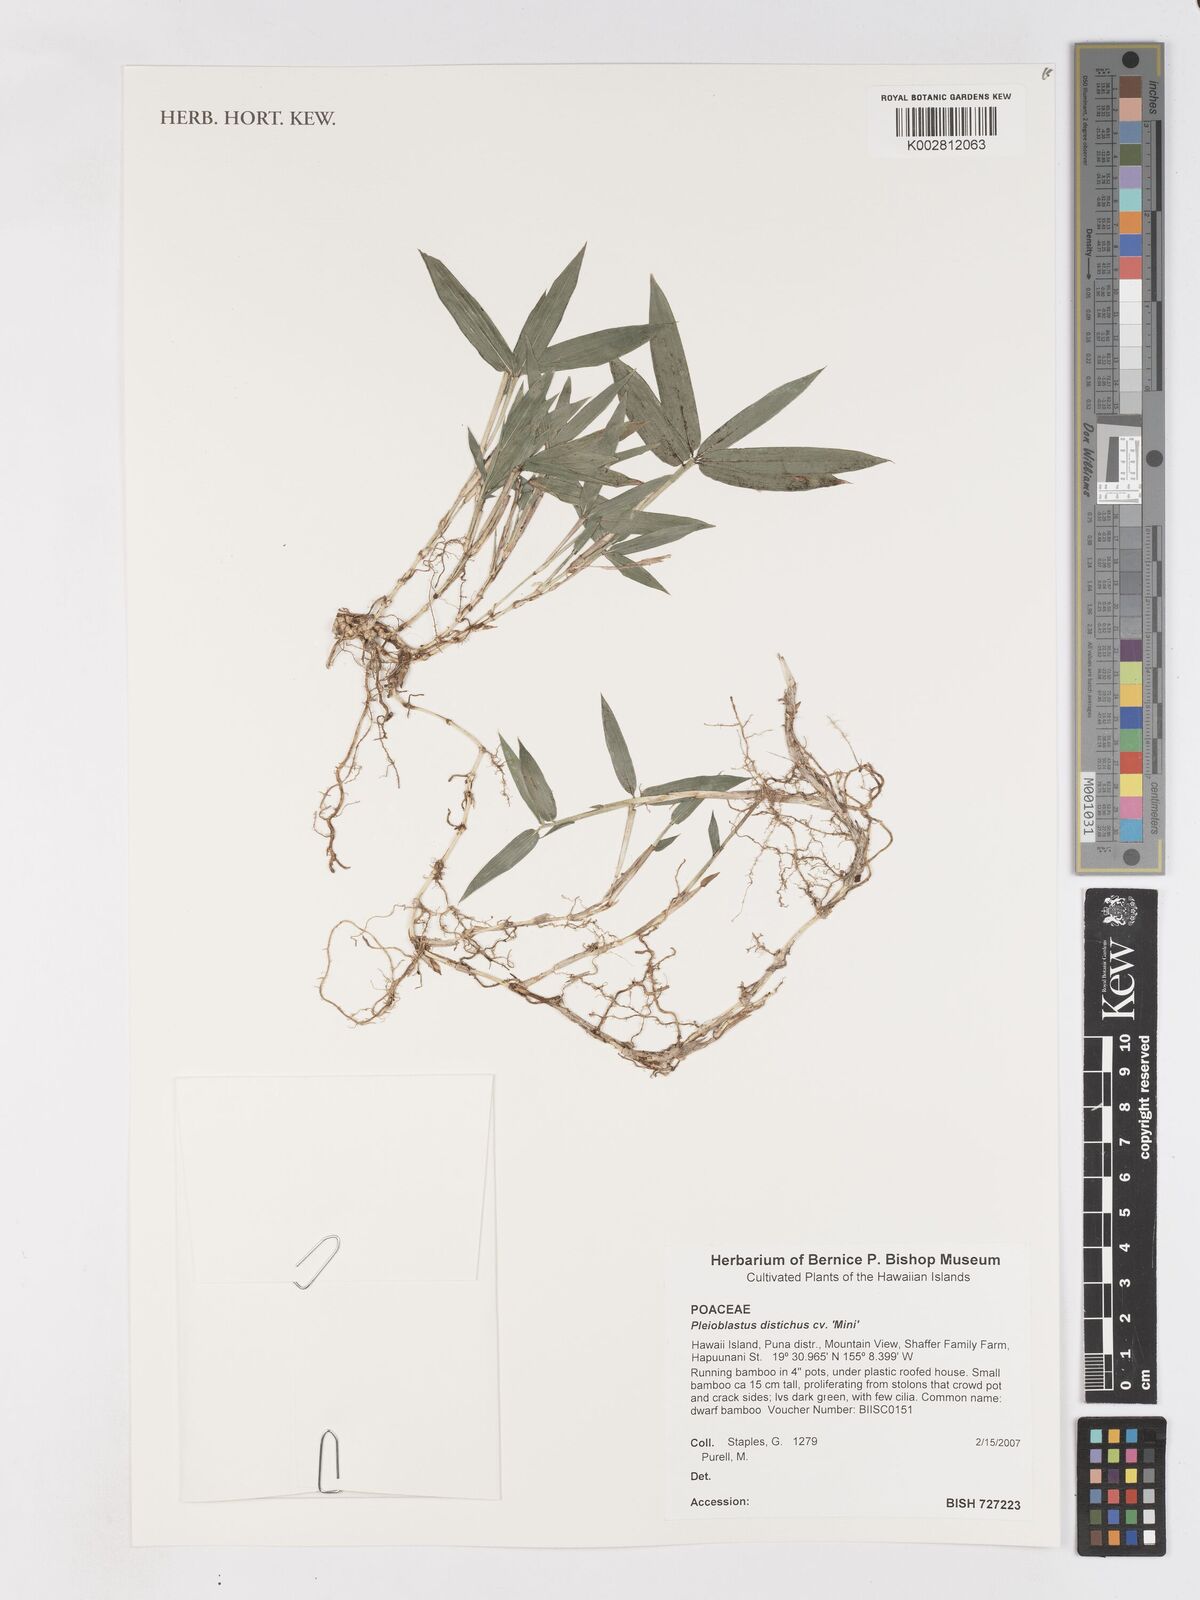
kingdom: Plantae
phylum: Tracheophyta
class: Liliopsida
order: Poales
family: Poaceae
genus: Pleioblastus
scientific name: Pleioblastus distichus
